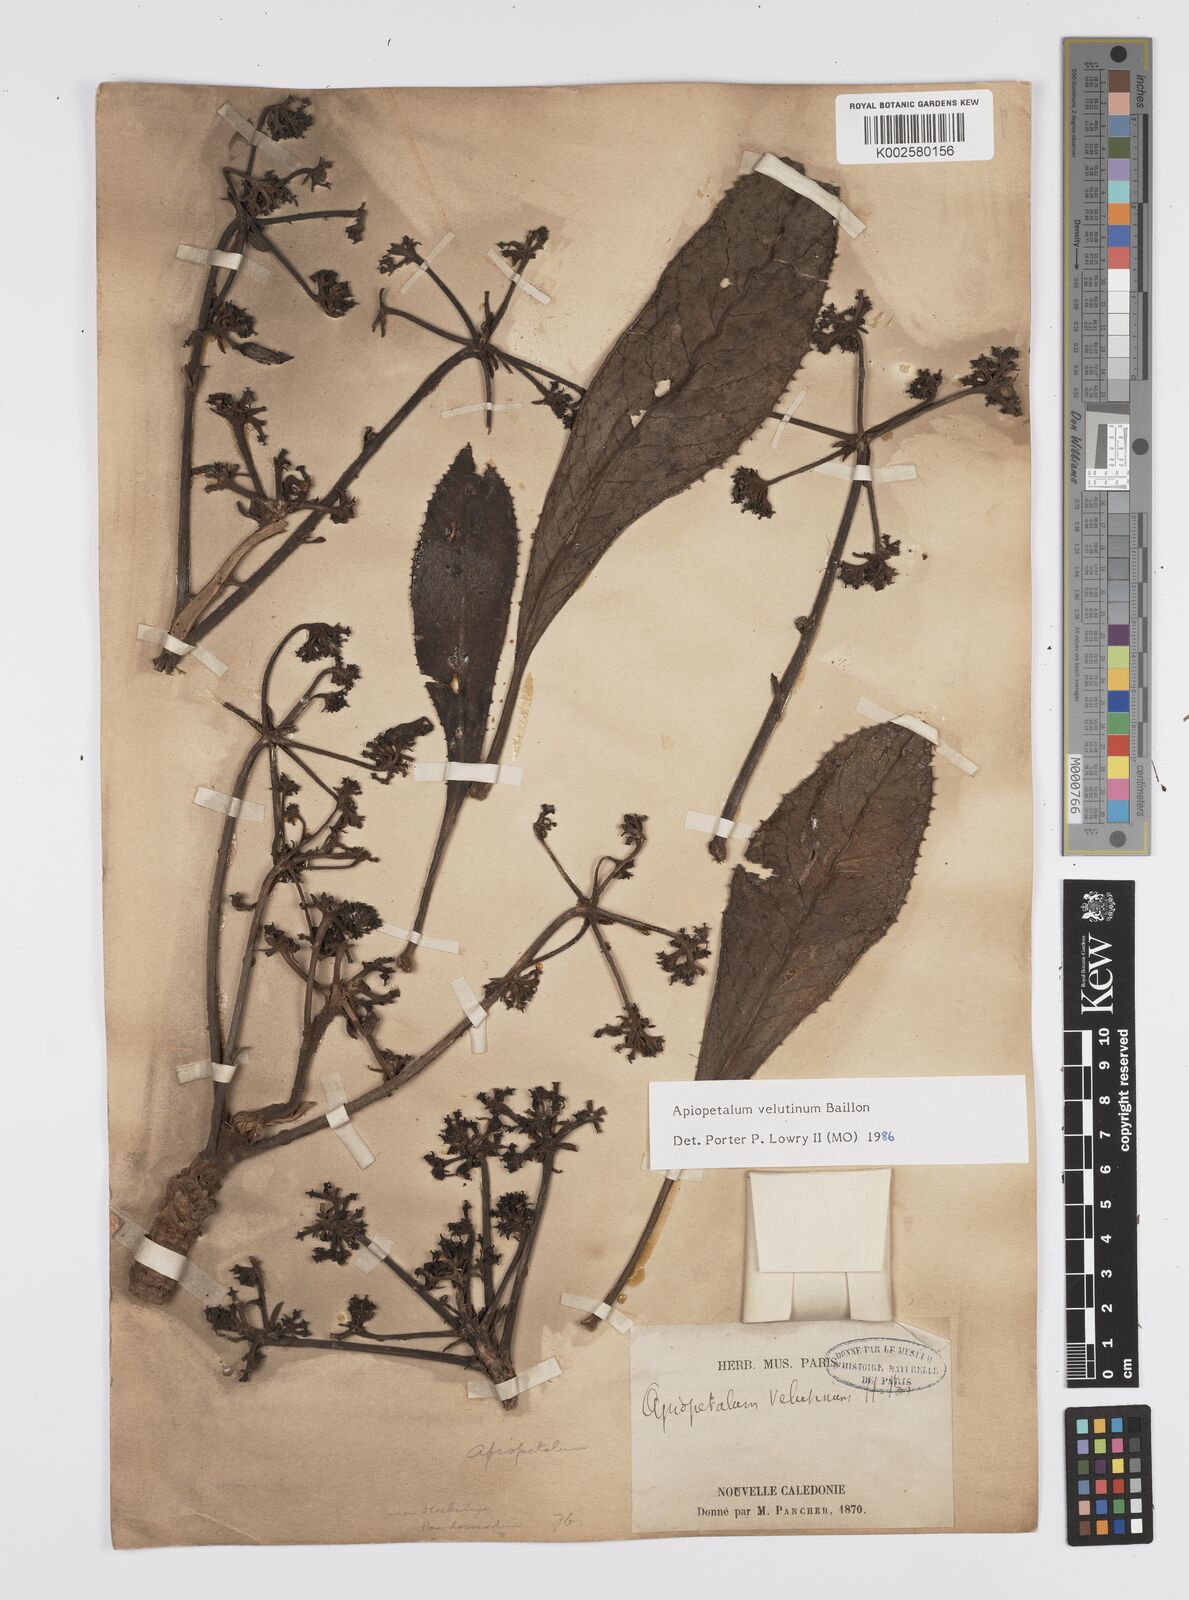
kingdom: Plantae
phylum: Tracheophyta
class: Magnoliopsida
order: Apiales
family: Apiaceae
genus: Apiopetalum
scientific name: Apiopetalum velutinum
